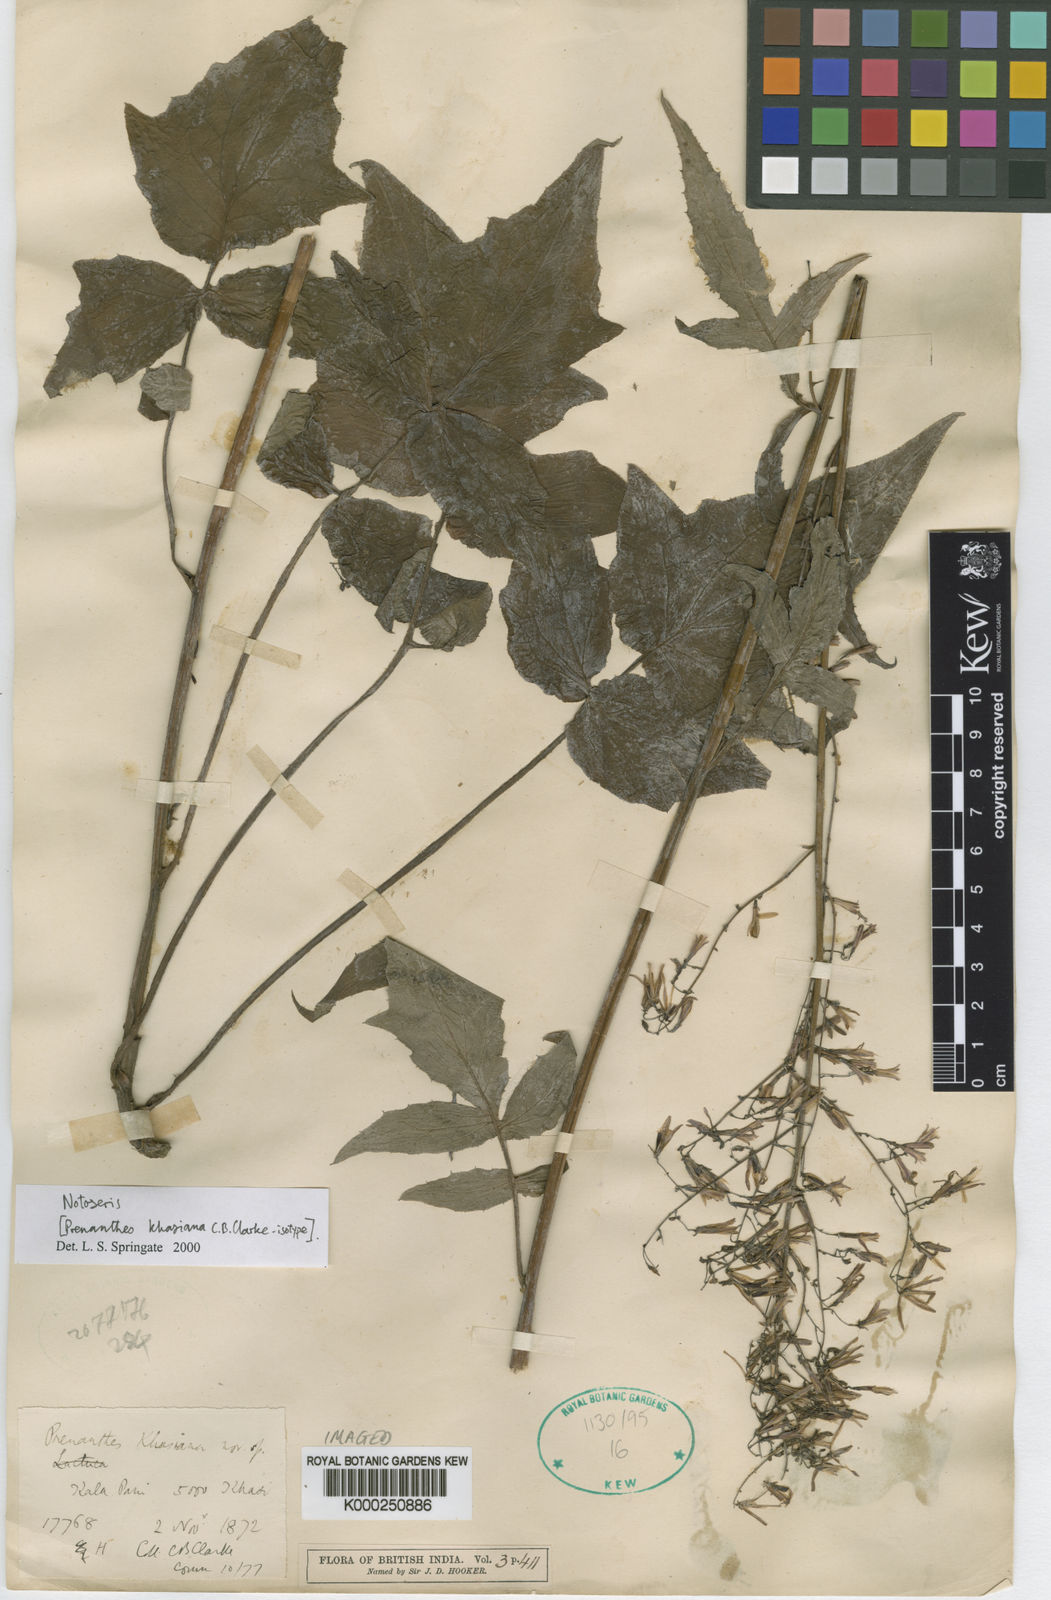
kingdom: Plantae
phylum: Tracheophyta
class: Magnoliopsida
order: Asterales
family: Asteraceae
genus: Notoseris
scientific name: Notoseris khasiana
